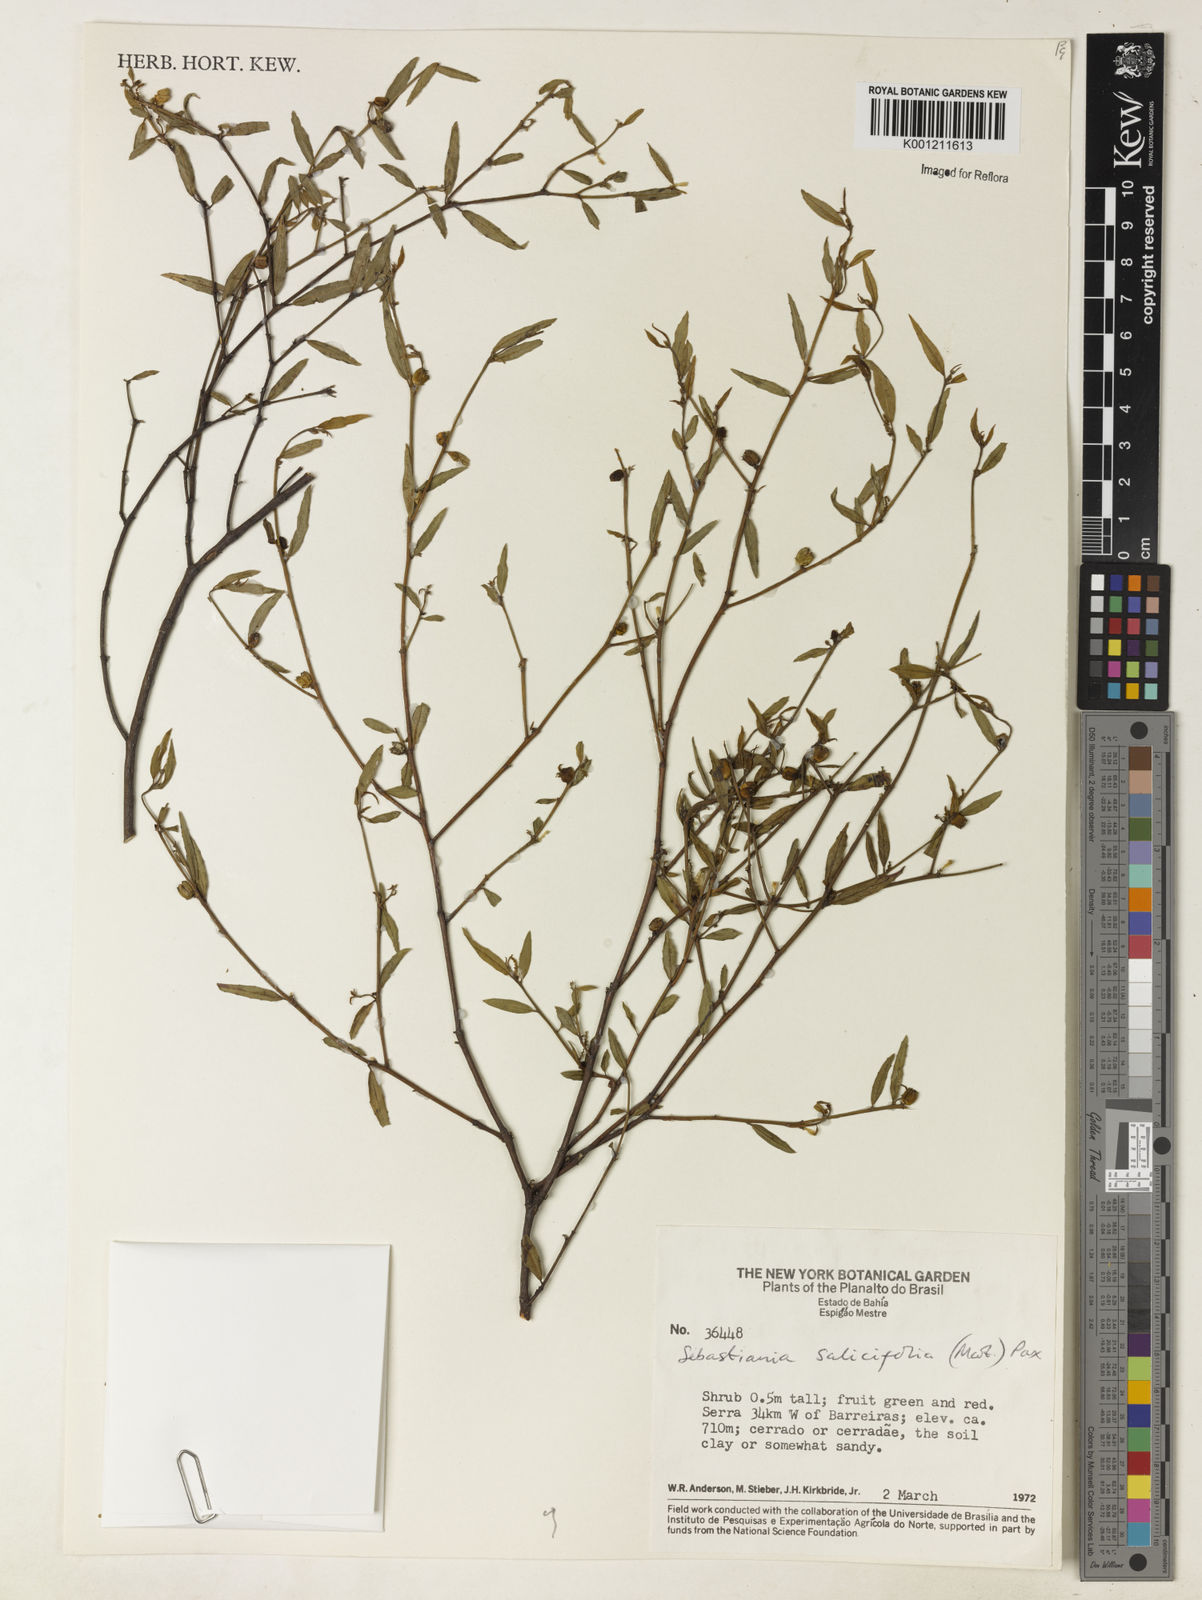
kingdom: Plantae
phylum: Tracheophyta
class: Magnoliopsida
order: Malpighiales
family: Euphorbiaceae
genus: Microstachys
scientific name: Microstachys
